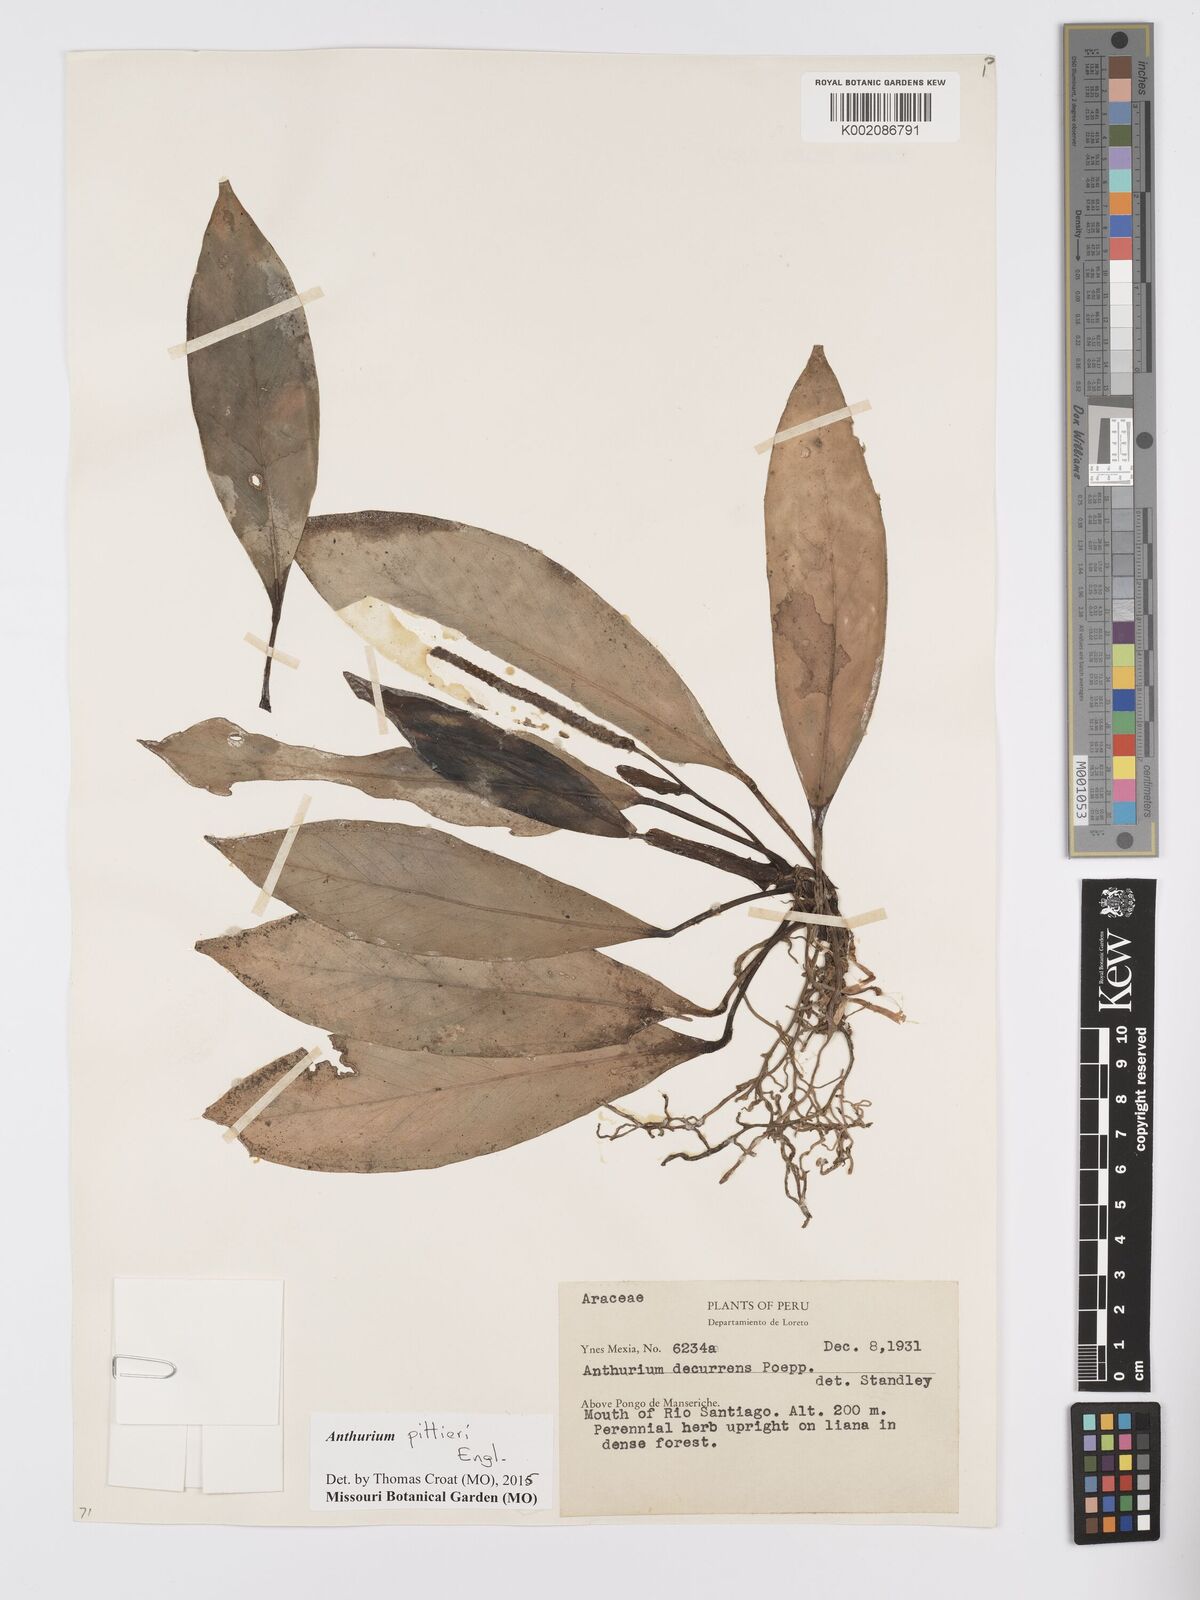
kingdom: Plantae
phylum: Tracheophyta
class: Liliopsida
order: Alismatales
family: Araceae
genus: Anthurium
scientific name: Anthurium pittieri
